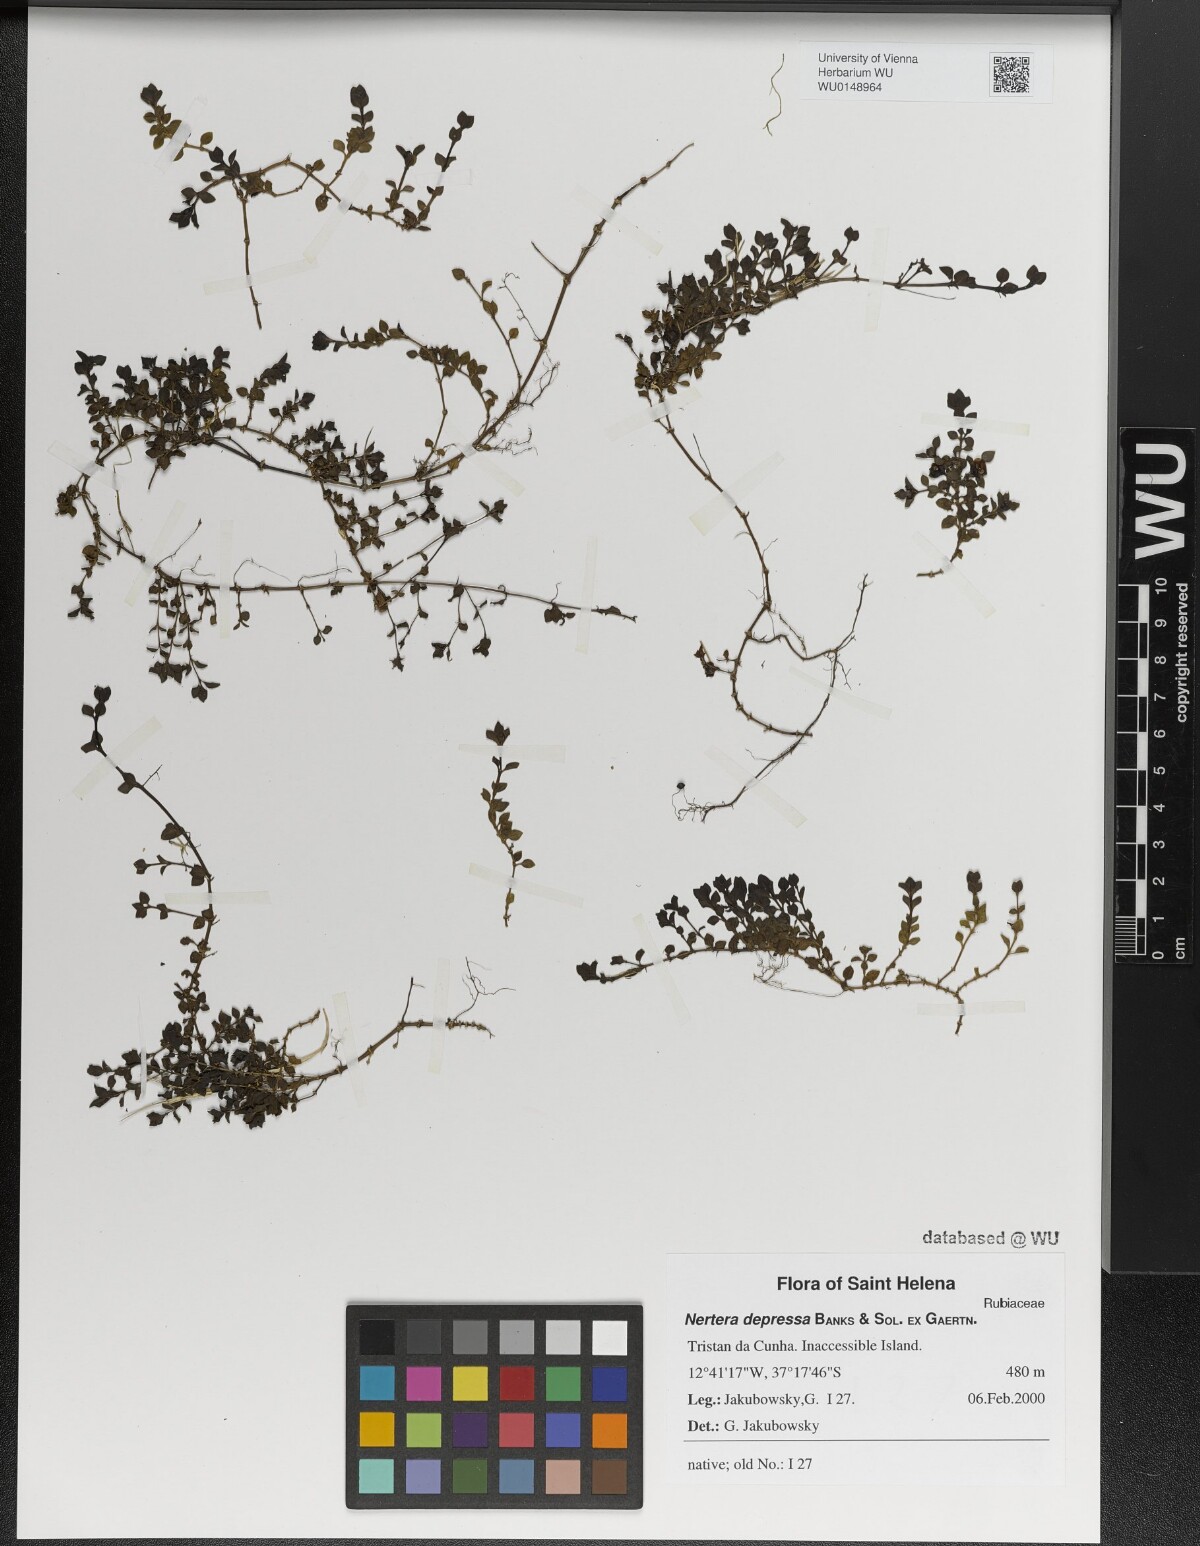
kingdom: Plantae
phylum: Tracheophyta
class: Magnoliopsida
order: Gentianales
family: Rubiaceae
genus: Nertera
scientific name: Nertera granadensis
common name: Beadplant
